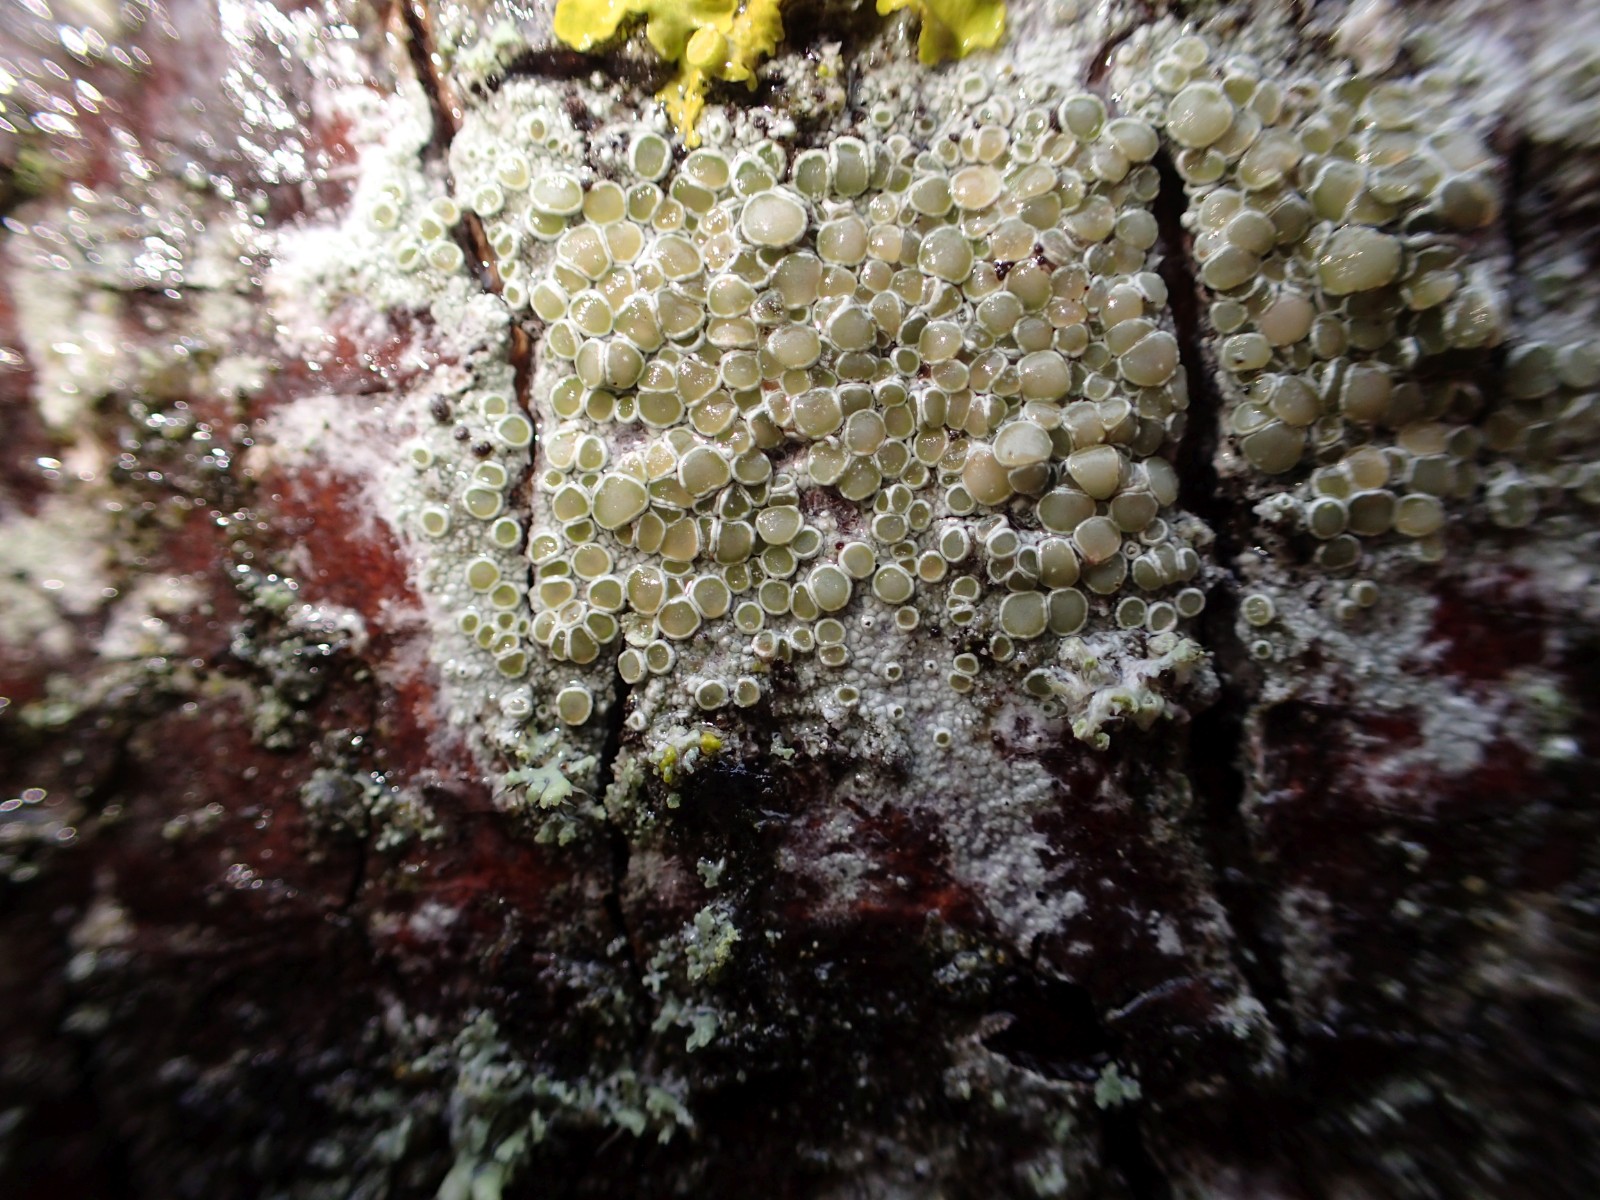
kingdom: Fungi
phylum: Ascomycota
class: Lecanoromycetes
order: Lecanorales
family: Lecanoraceae
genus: Lecanora
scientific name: Lecanora chlarotera
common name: brun kantskivelav
